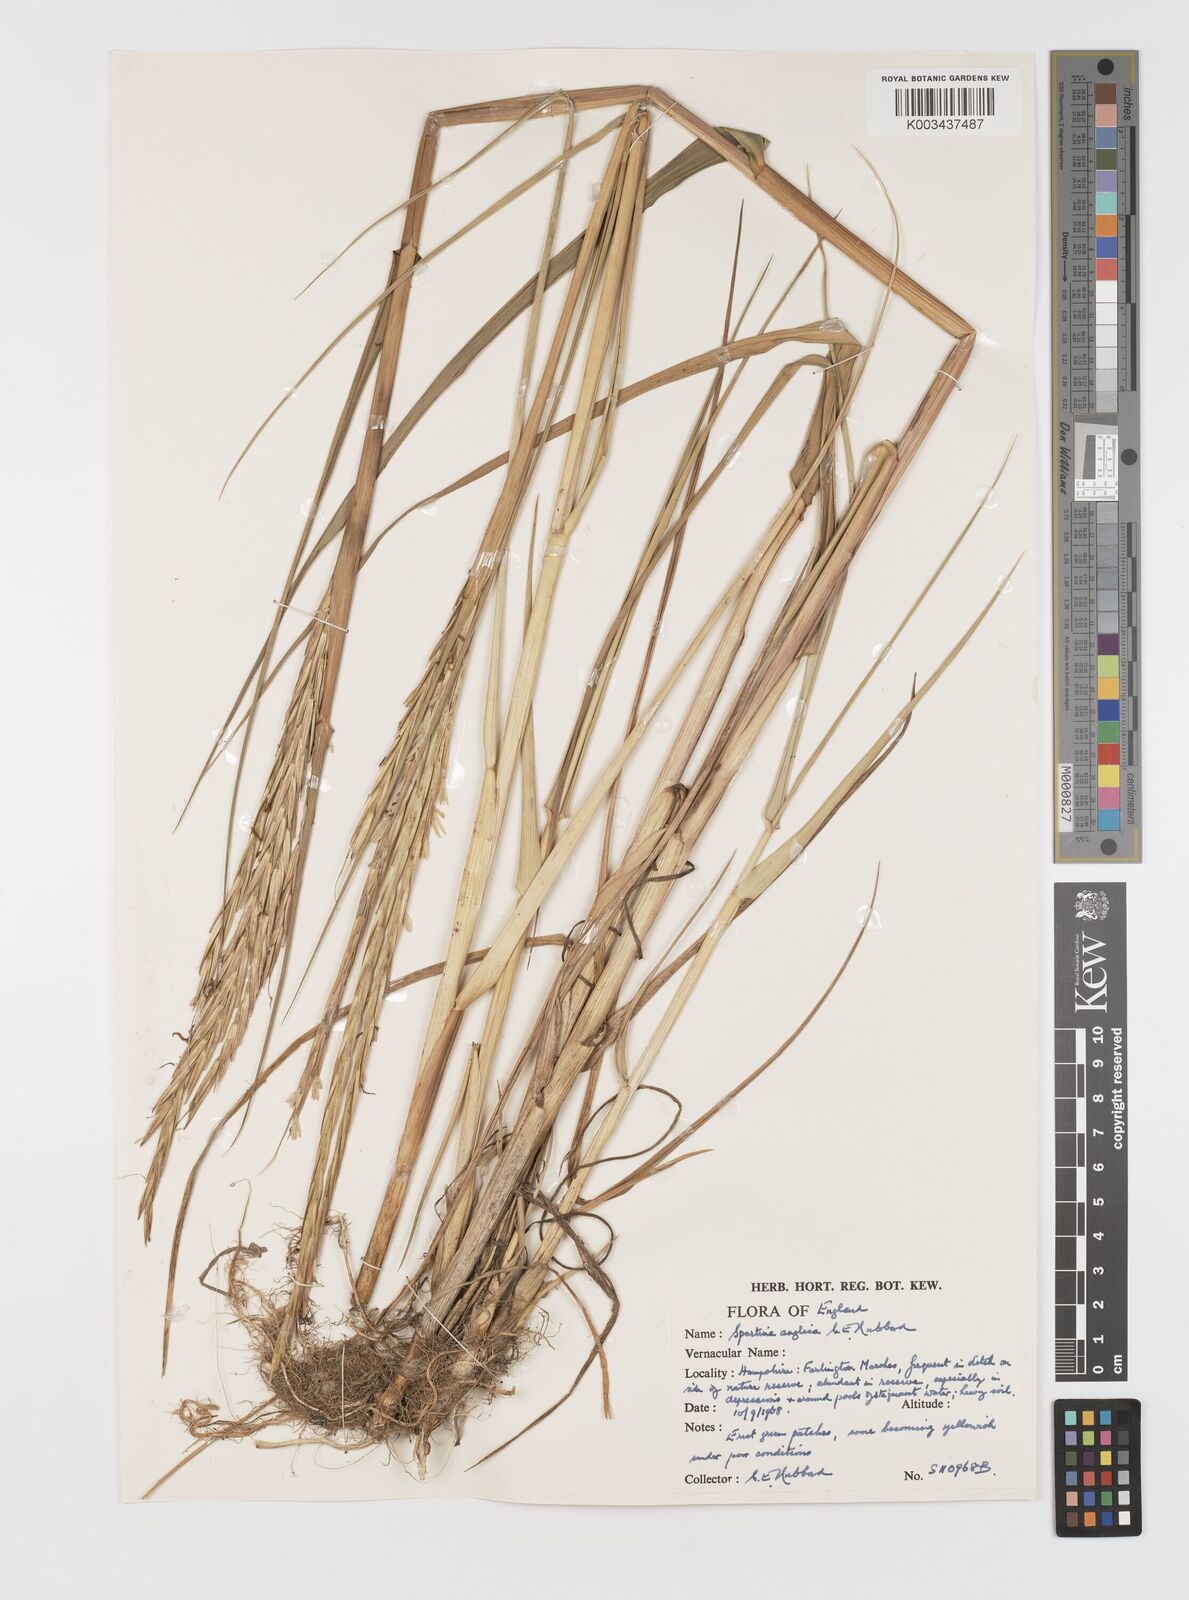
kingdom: Plantae
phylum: Tracheophyta
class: Liliopsida
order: Poales
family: Poaceae
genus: Sporobolus
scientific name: Sporobolus anglicus
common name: English cordgrass
